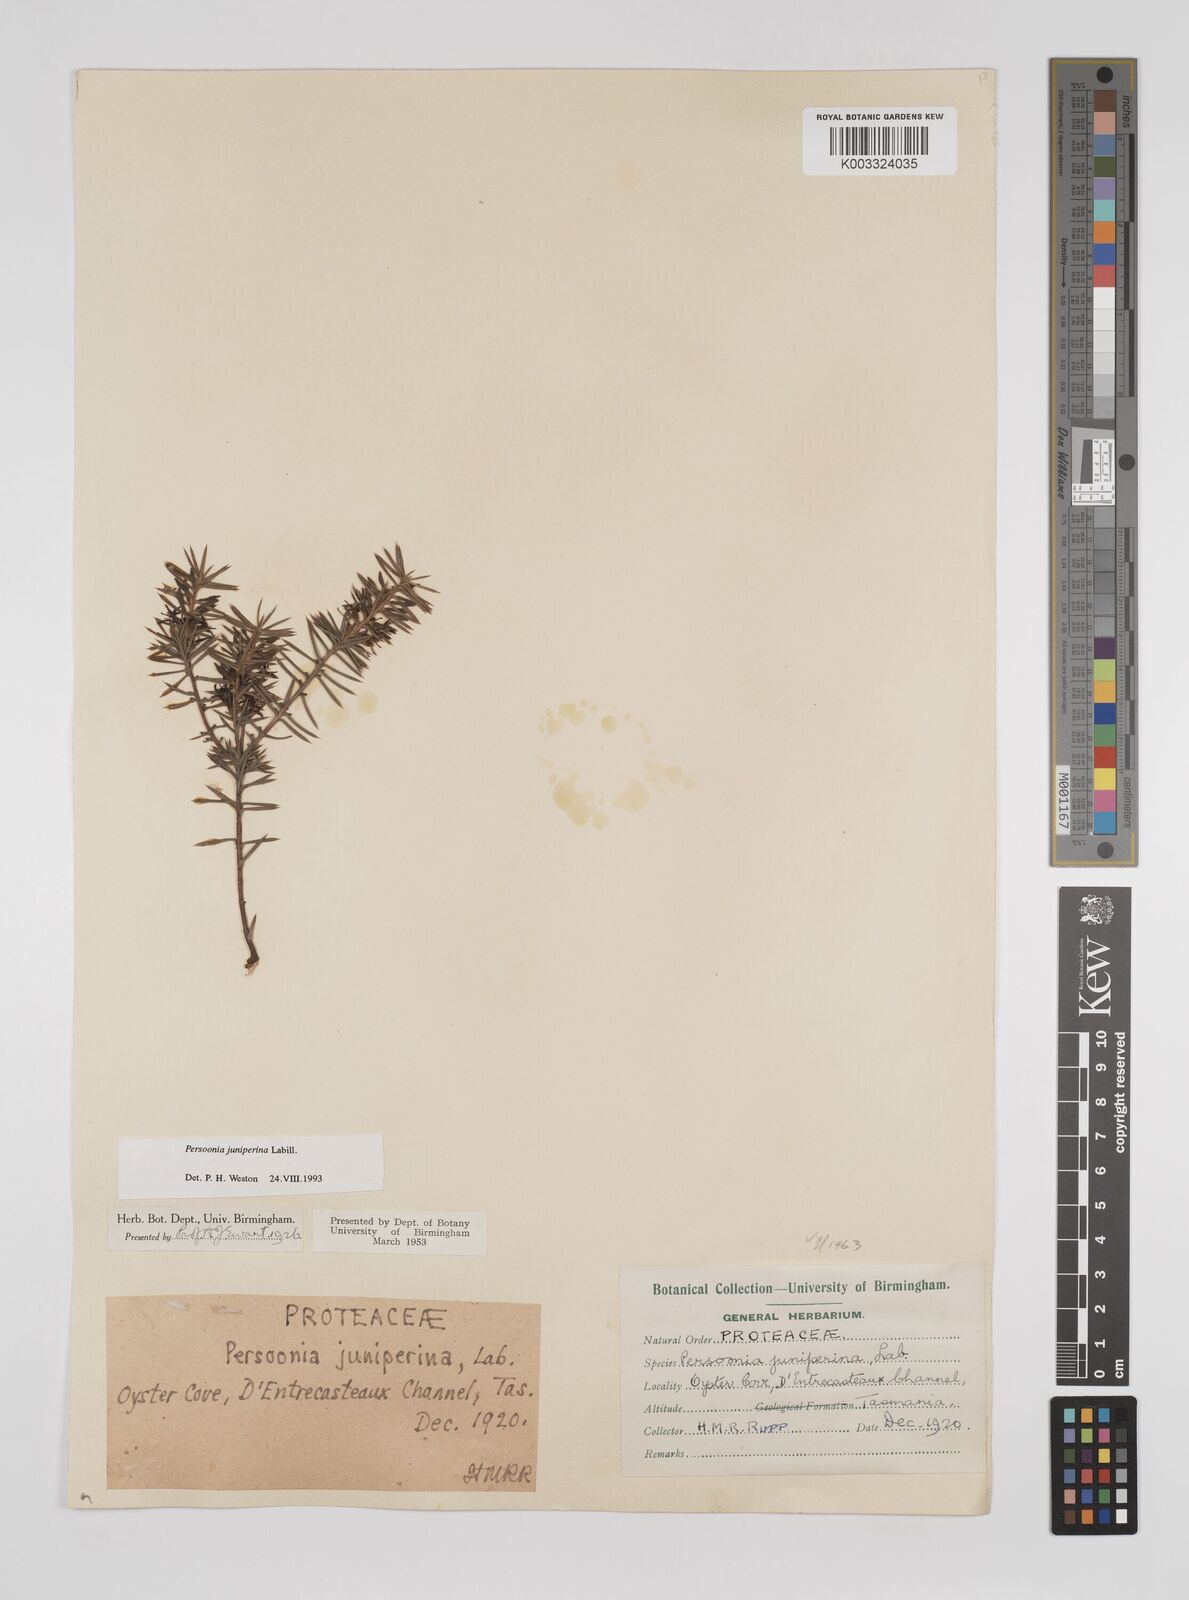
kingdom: Plantae
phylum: Tracheophyta
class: Magnoliopsida
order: Proteales
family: Proteaceae
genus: Persoonia
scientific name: Persoonia juniperina
